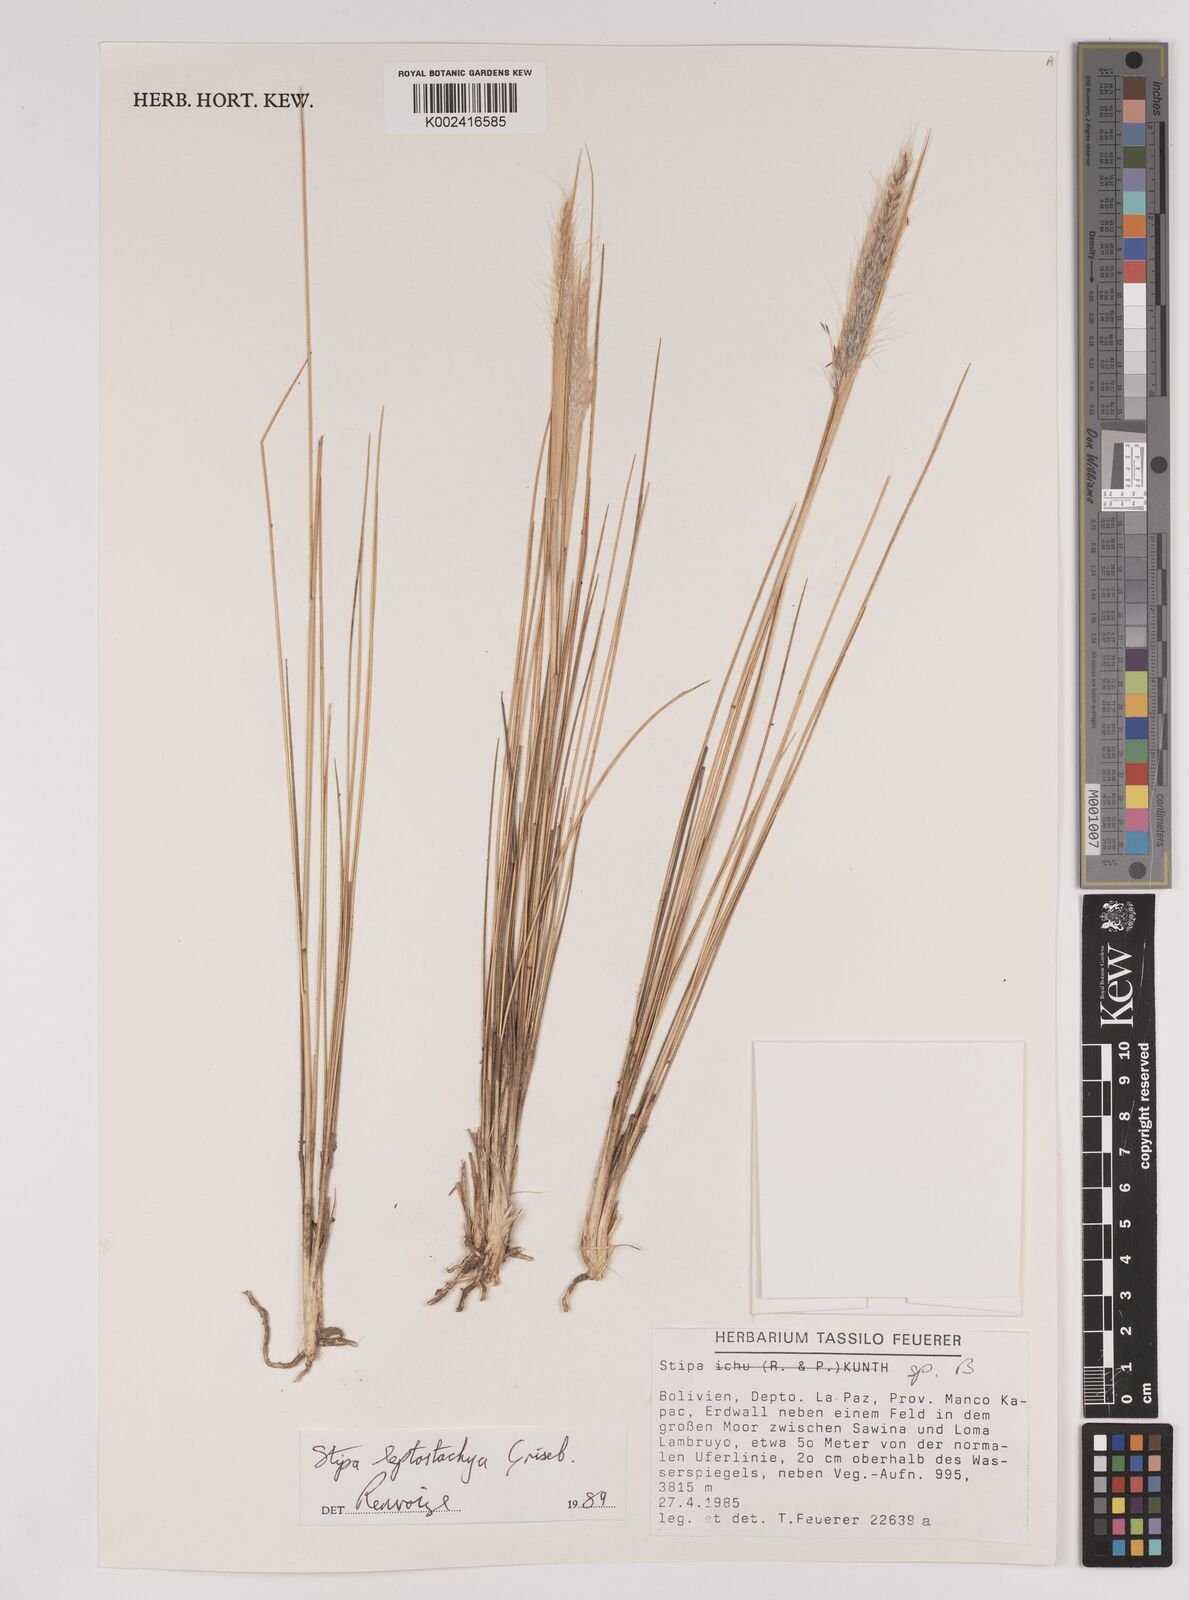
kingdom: Plantae
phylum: Tracheophyta
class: Liliopsida
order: Poales
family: Poaceae
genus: Jarava
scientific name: Jarava leptostachya
